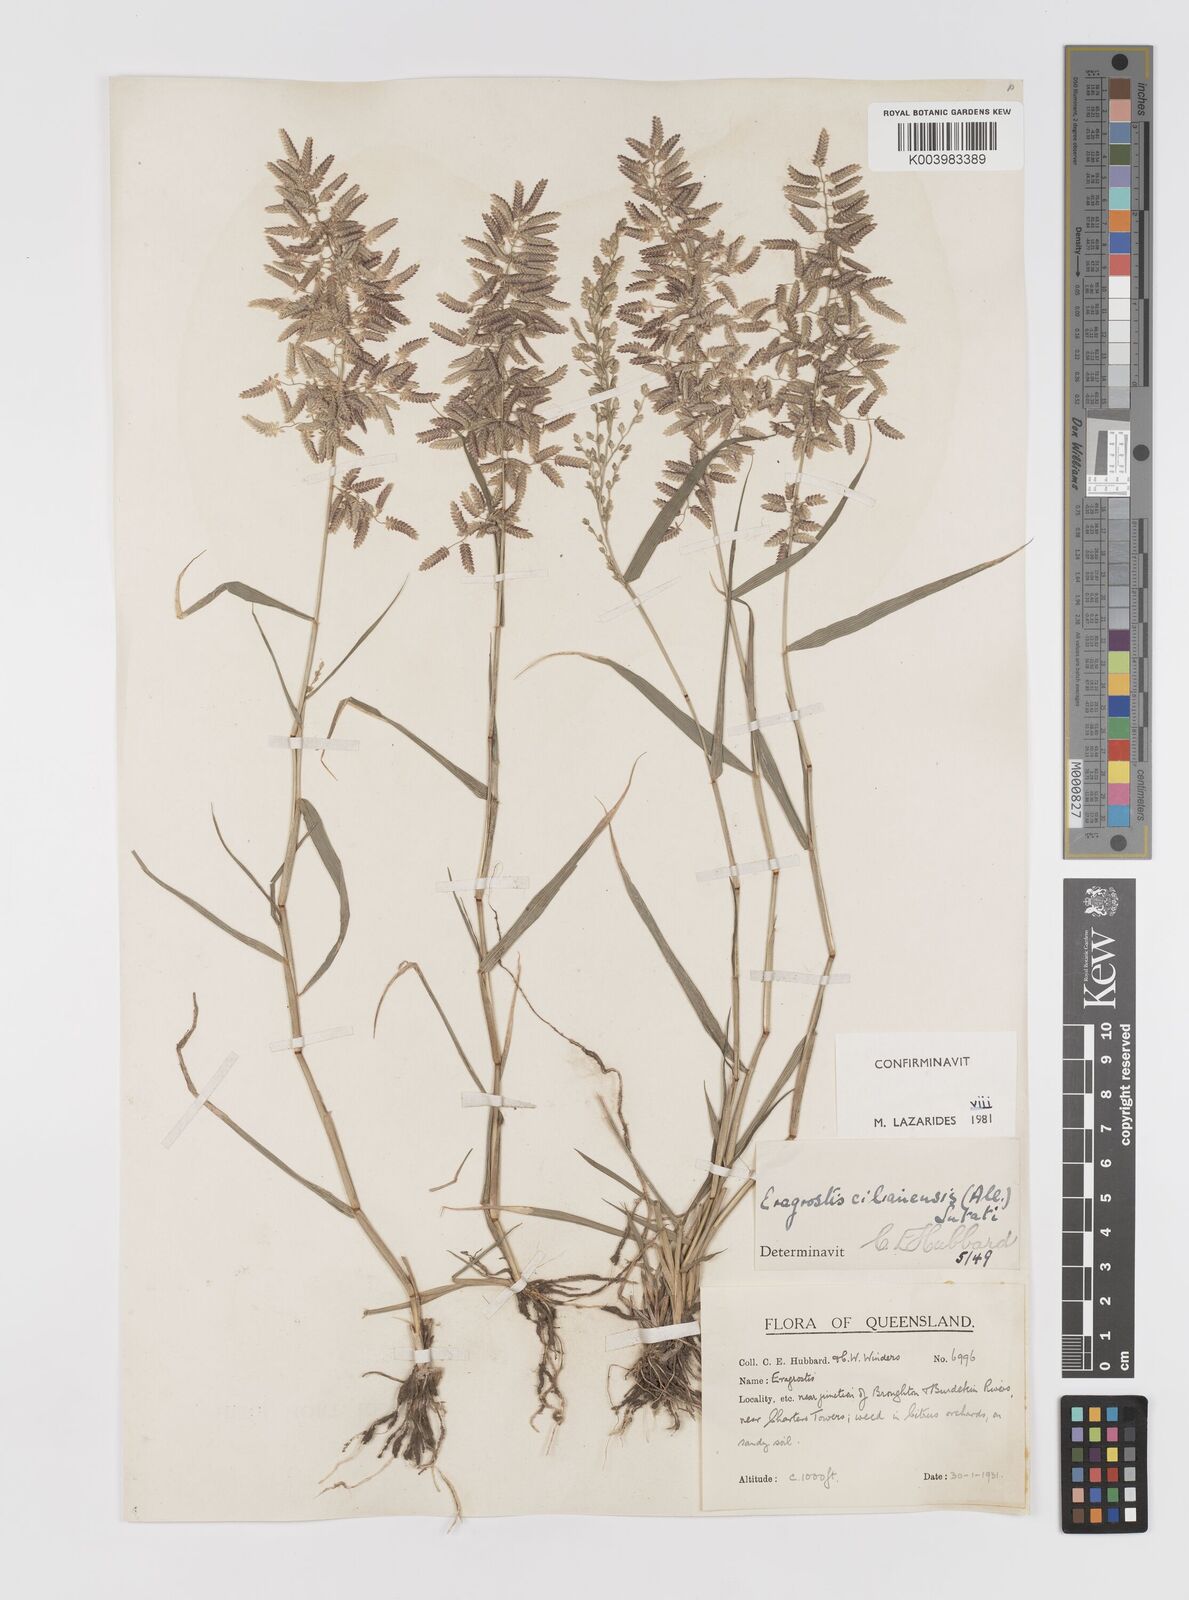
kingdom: Plantae
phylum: Tracheophyta
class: Liliopsida
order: Poales
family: Poaceae
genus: Eragrostis
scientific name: Eragrostis cilianensis
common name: Stinkgrass
